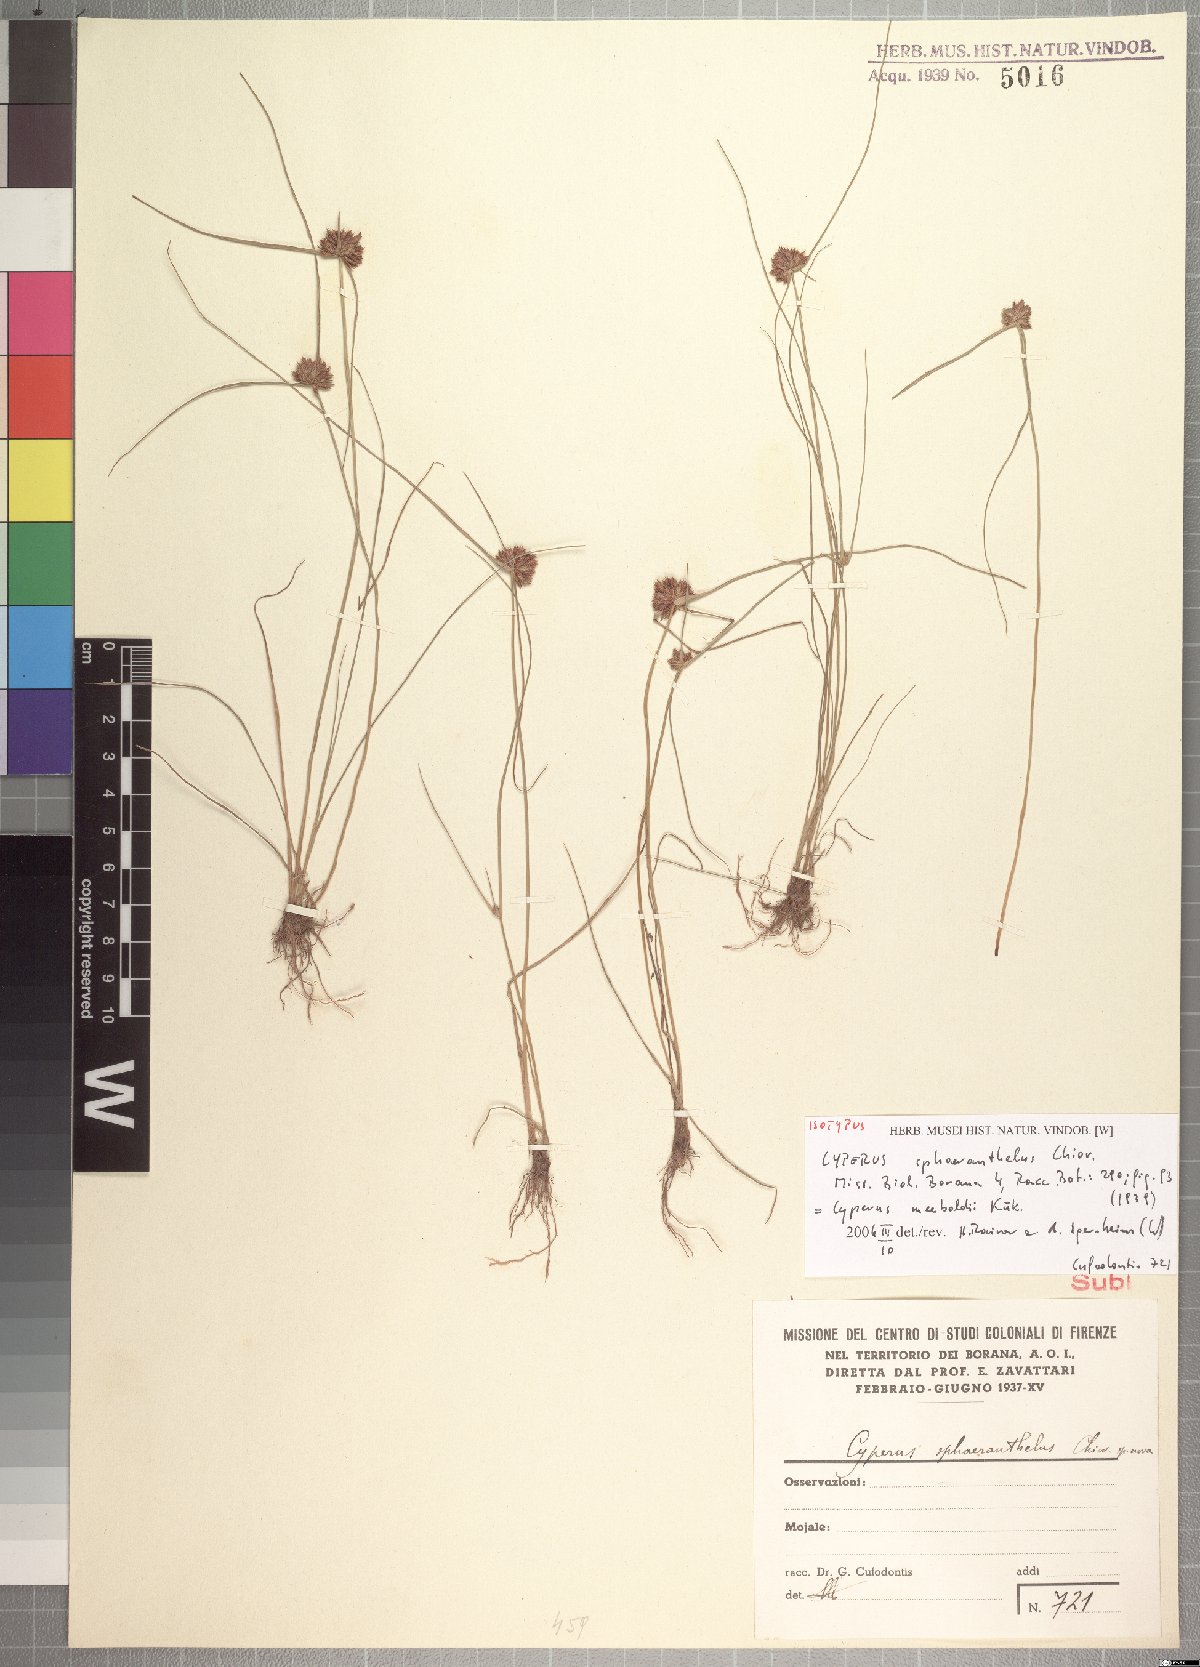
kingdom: Plantae
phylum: Tracheophyta
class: Liliopsida
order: Poales
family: Cyperaceae
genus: Cyperus
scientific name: Cyperus meeboldii
